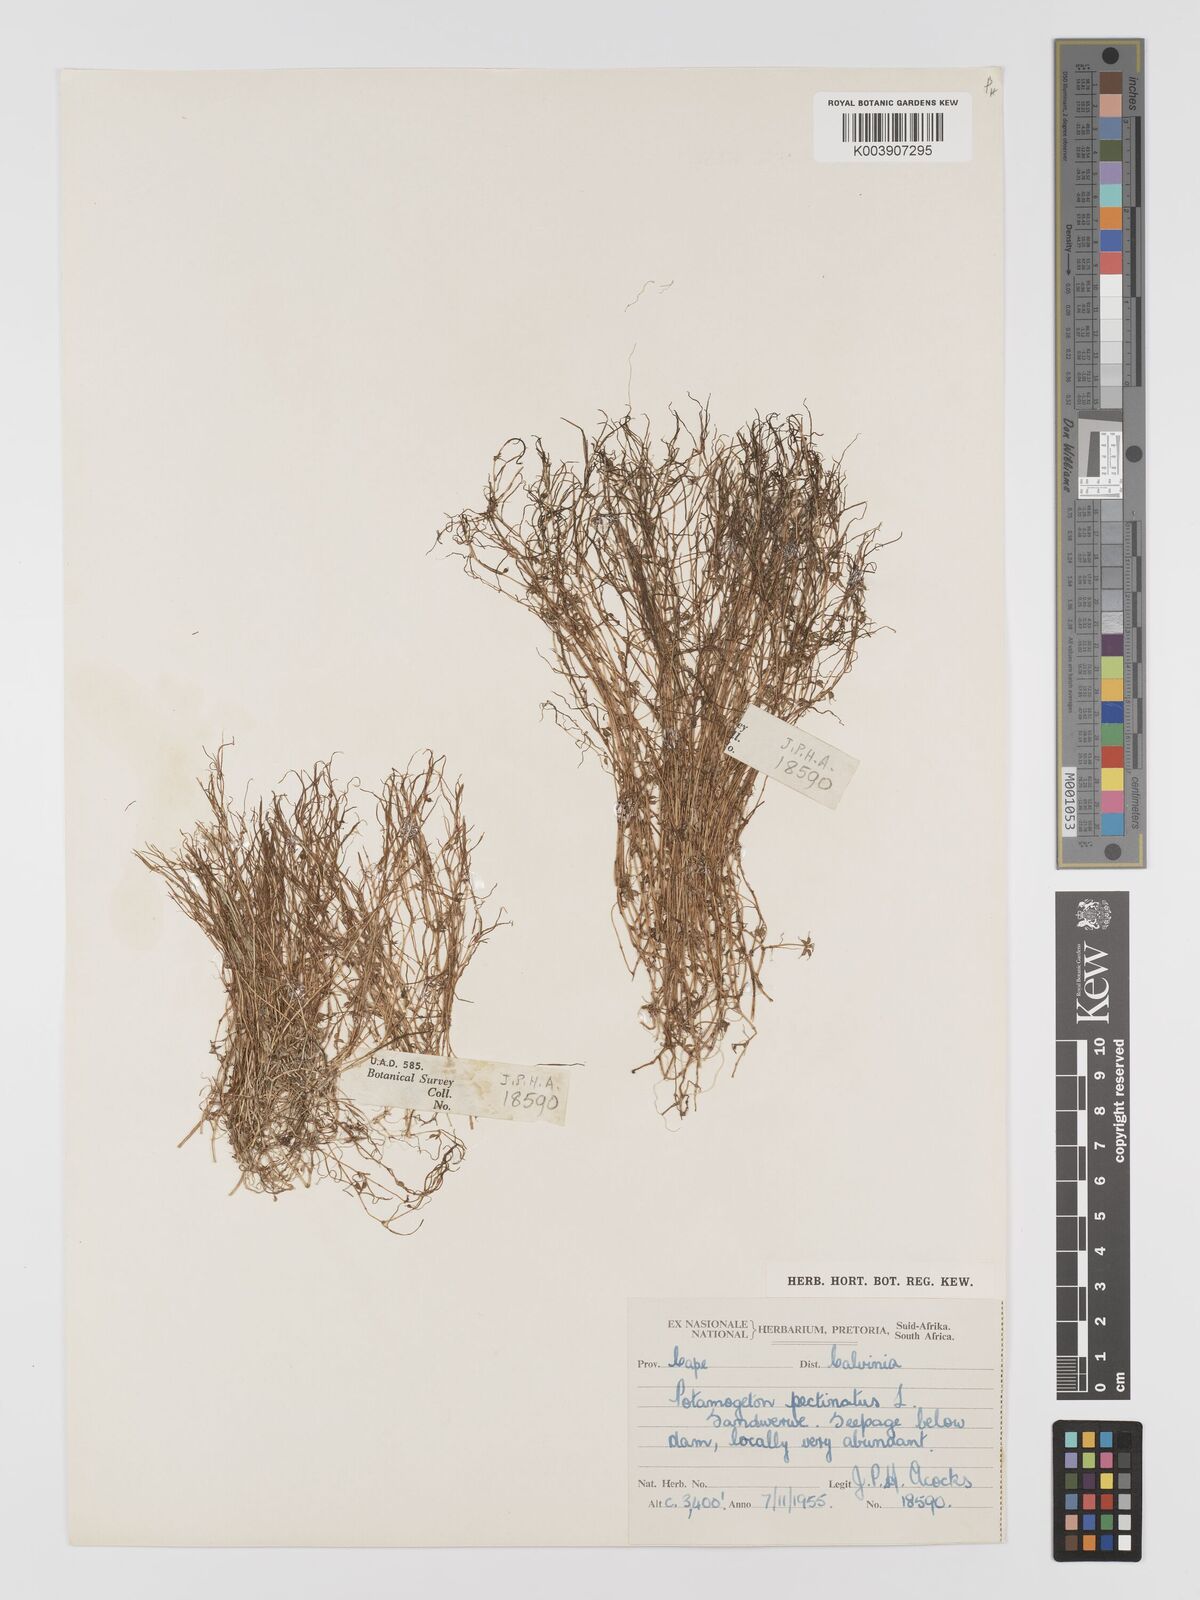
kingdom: Plantae
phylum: Tracheophyta
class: Liliopsida
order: Alismatales
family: Potamogetonaceae
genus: Stuckenia
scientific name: Stuckenia pectinata
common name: Sago pondweed
